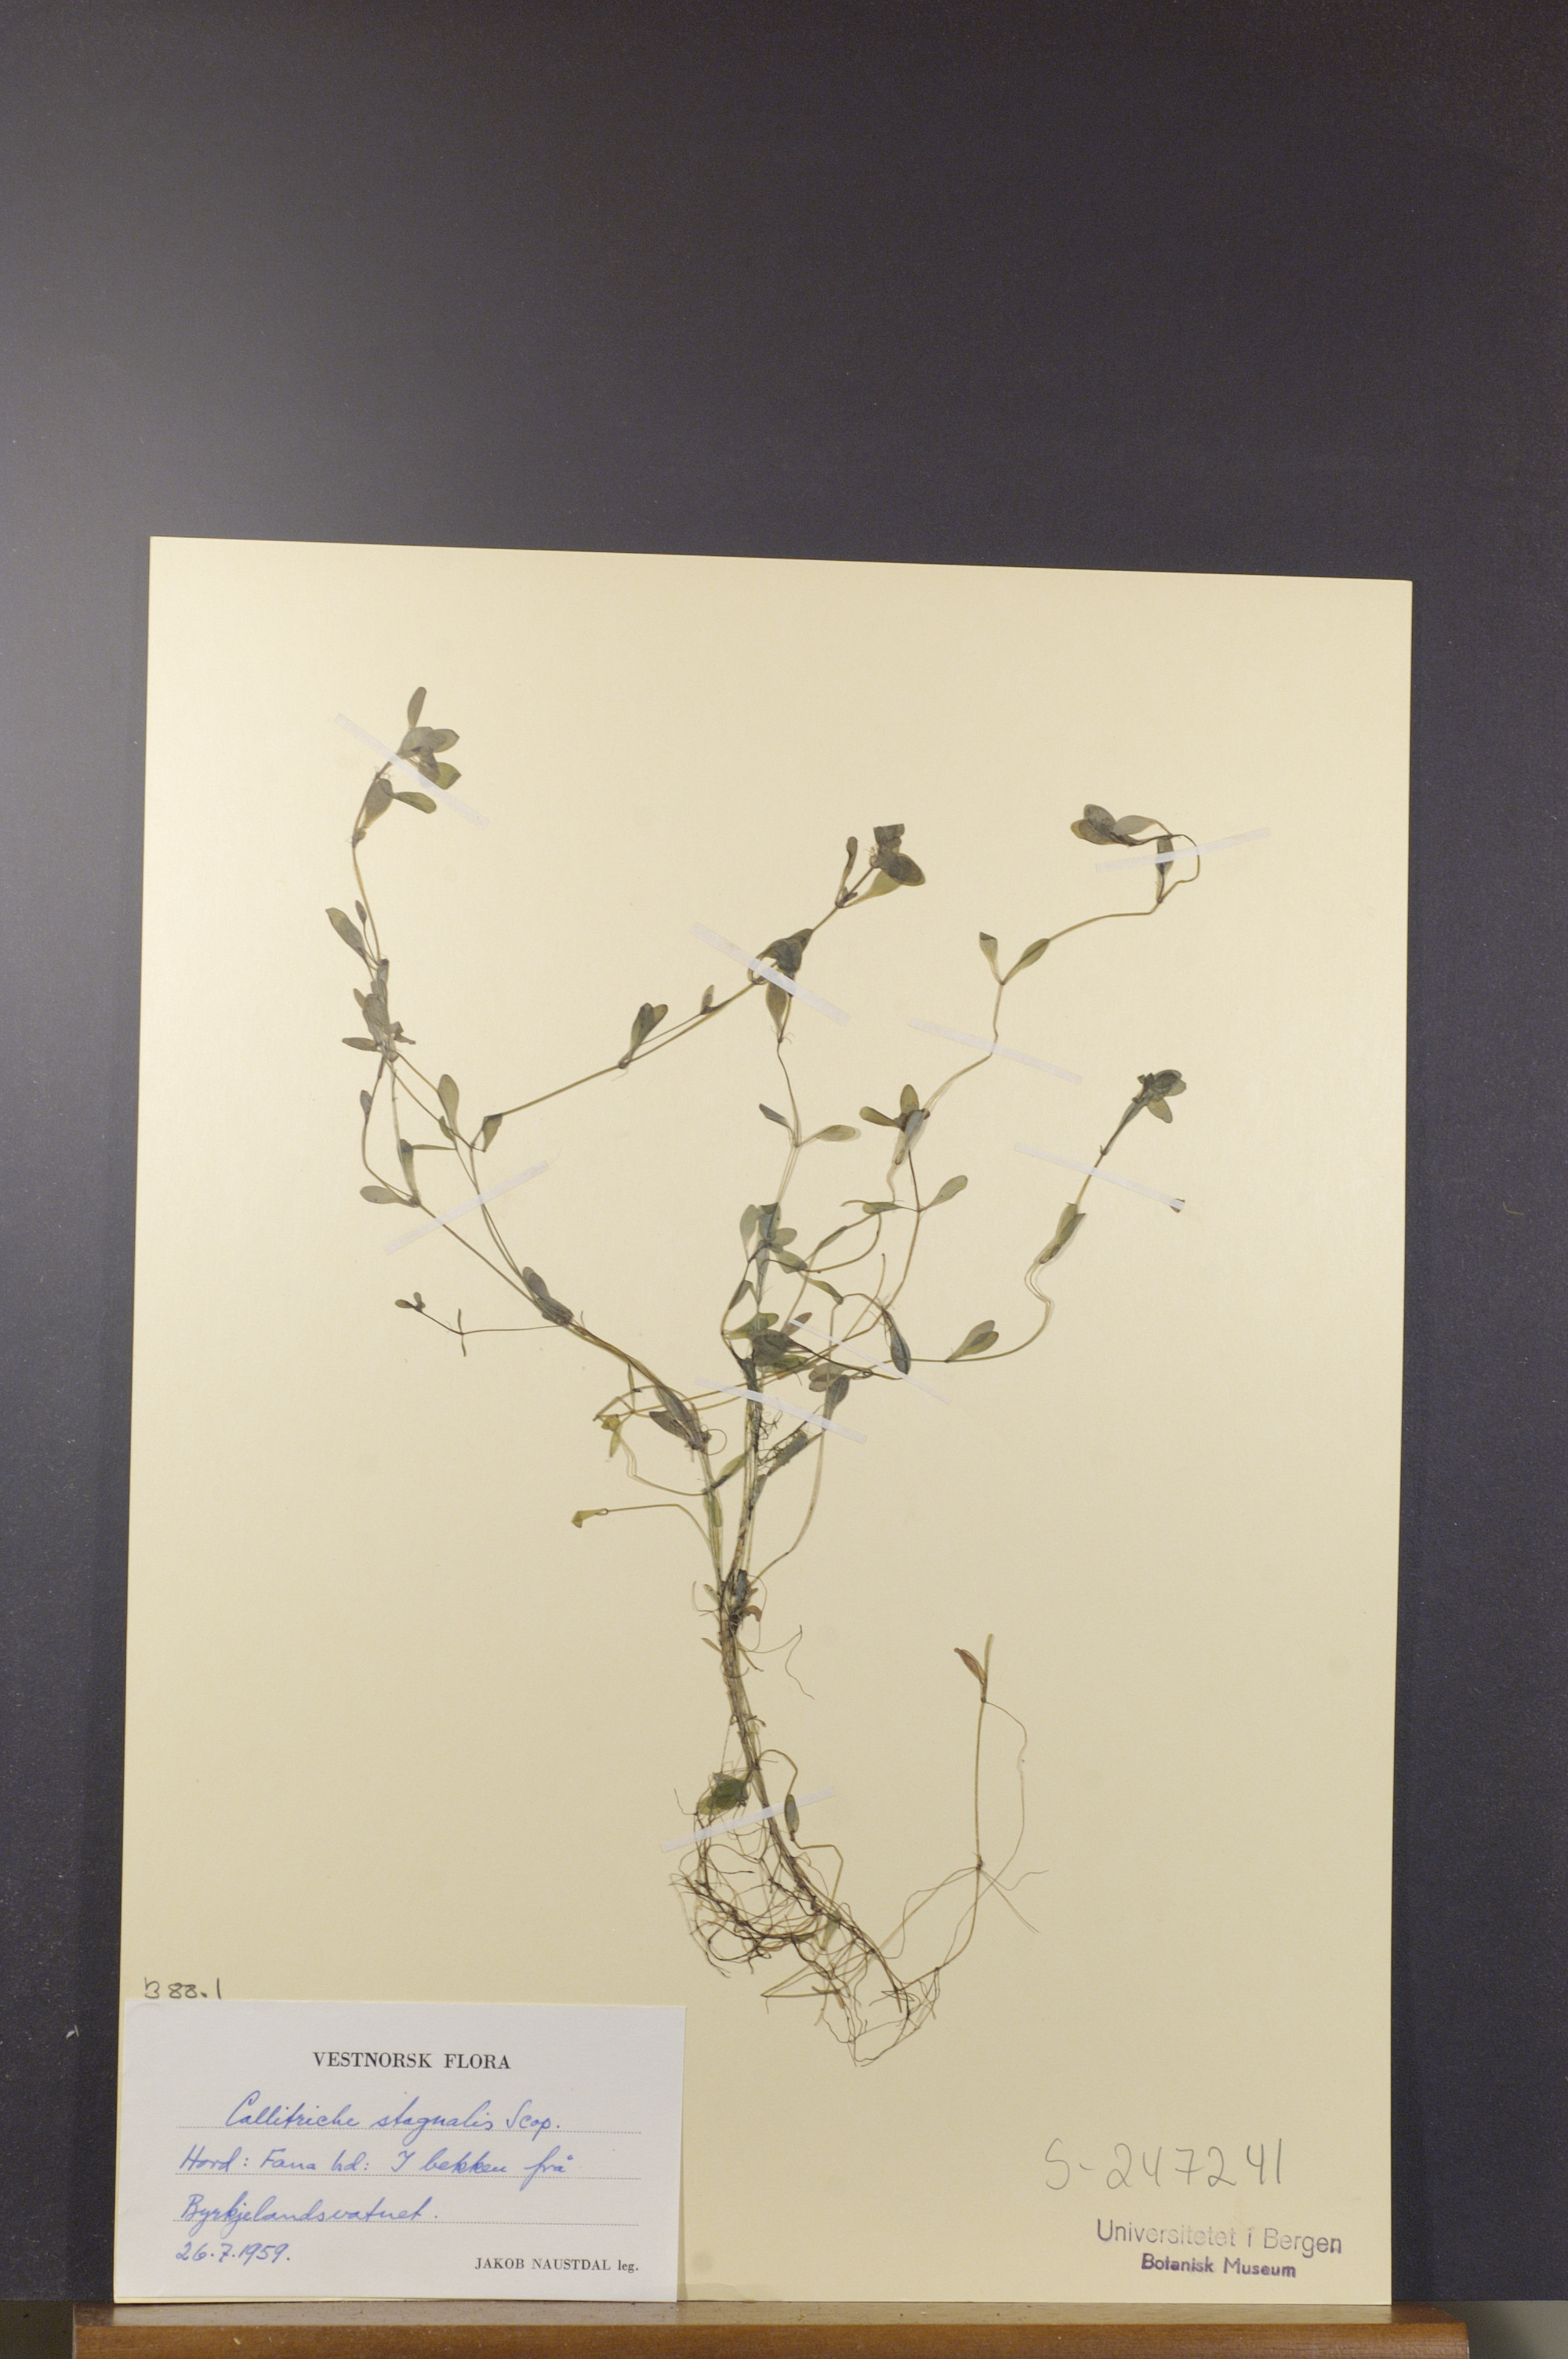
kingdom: Plantae
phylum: Tracheophyta
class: Magnoliopsida
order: Lamiales
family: Plantaginaceae
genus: Callitriche
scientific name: Callitriche stagnalis
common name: Common water-starwort
